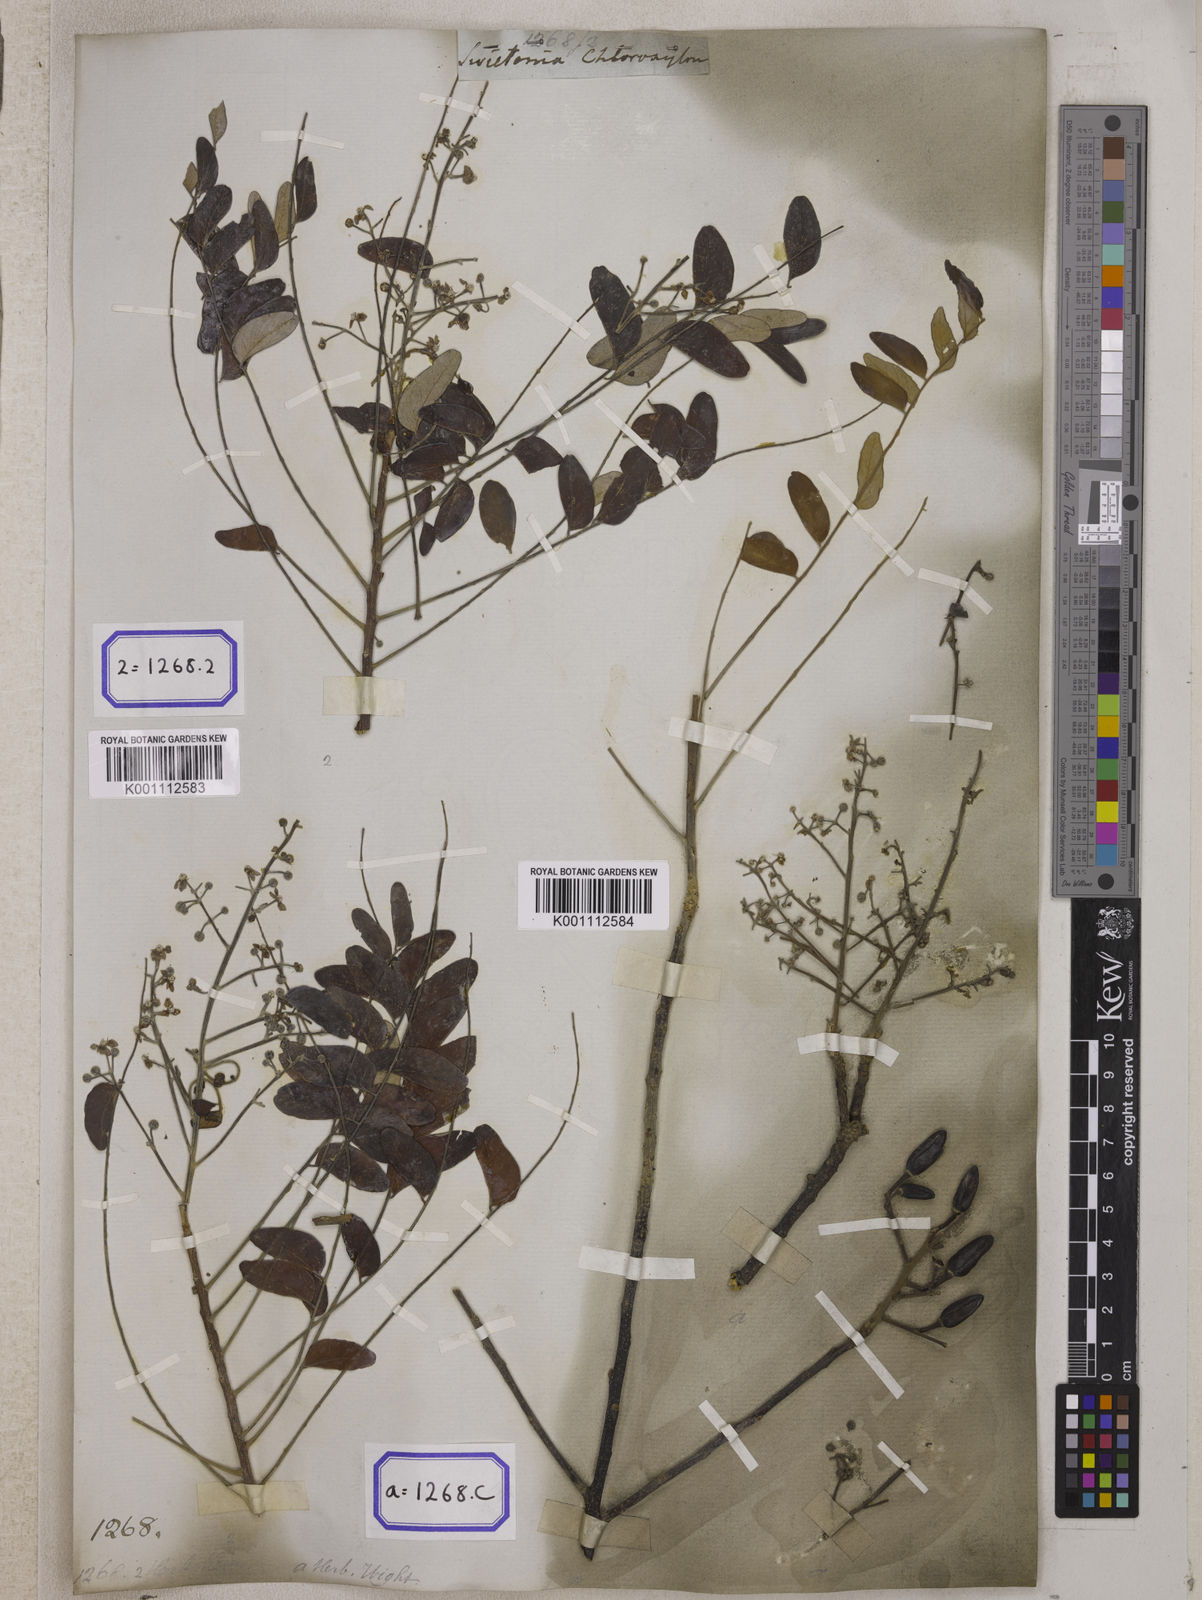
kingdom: Plantae
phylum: Tracheophyta
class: Magnoliopsida
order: Sapindales
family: Rutaceae
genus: Chloroxylon
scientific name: Chloroxylon swietenia
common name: East indian satinwood
